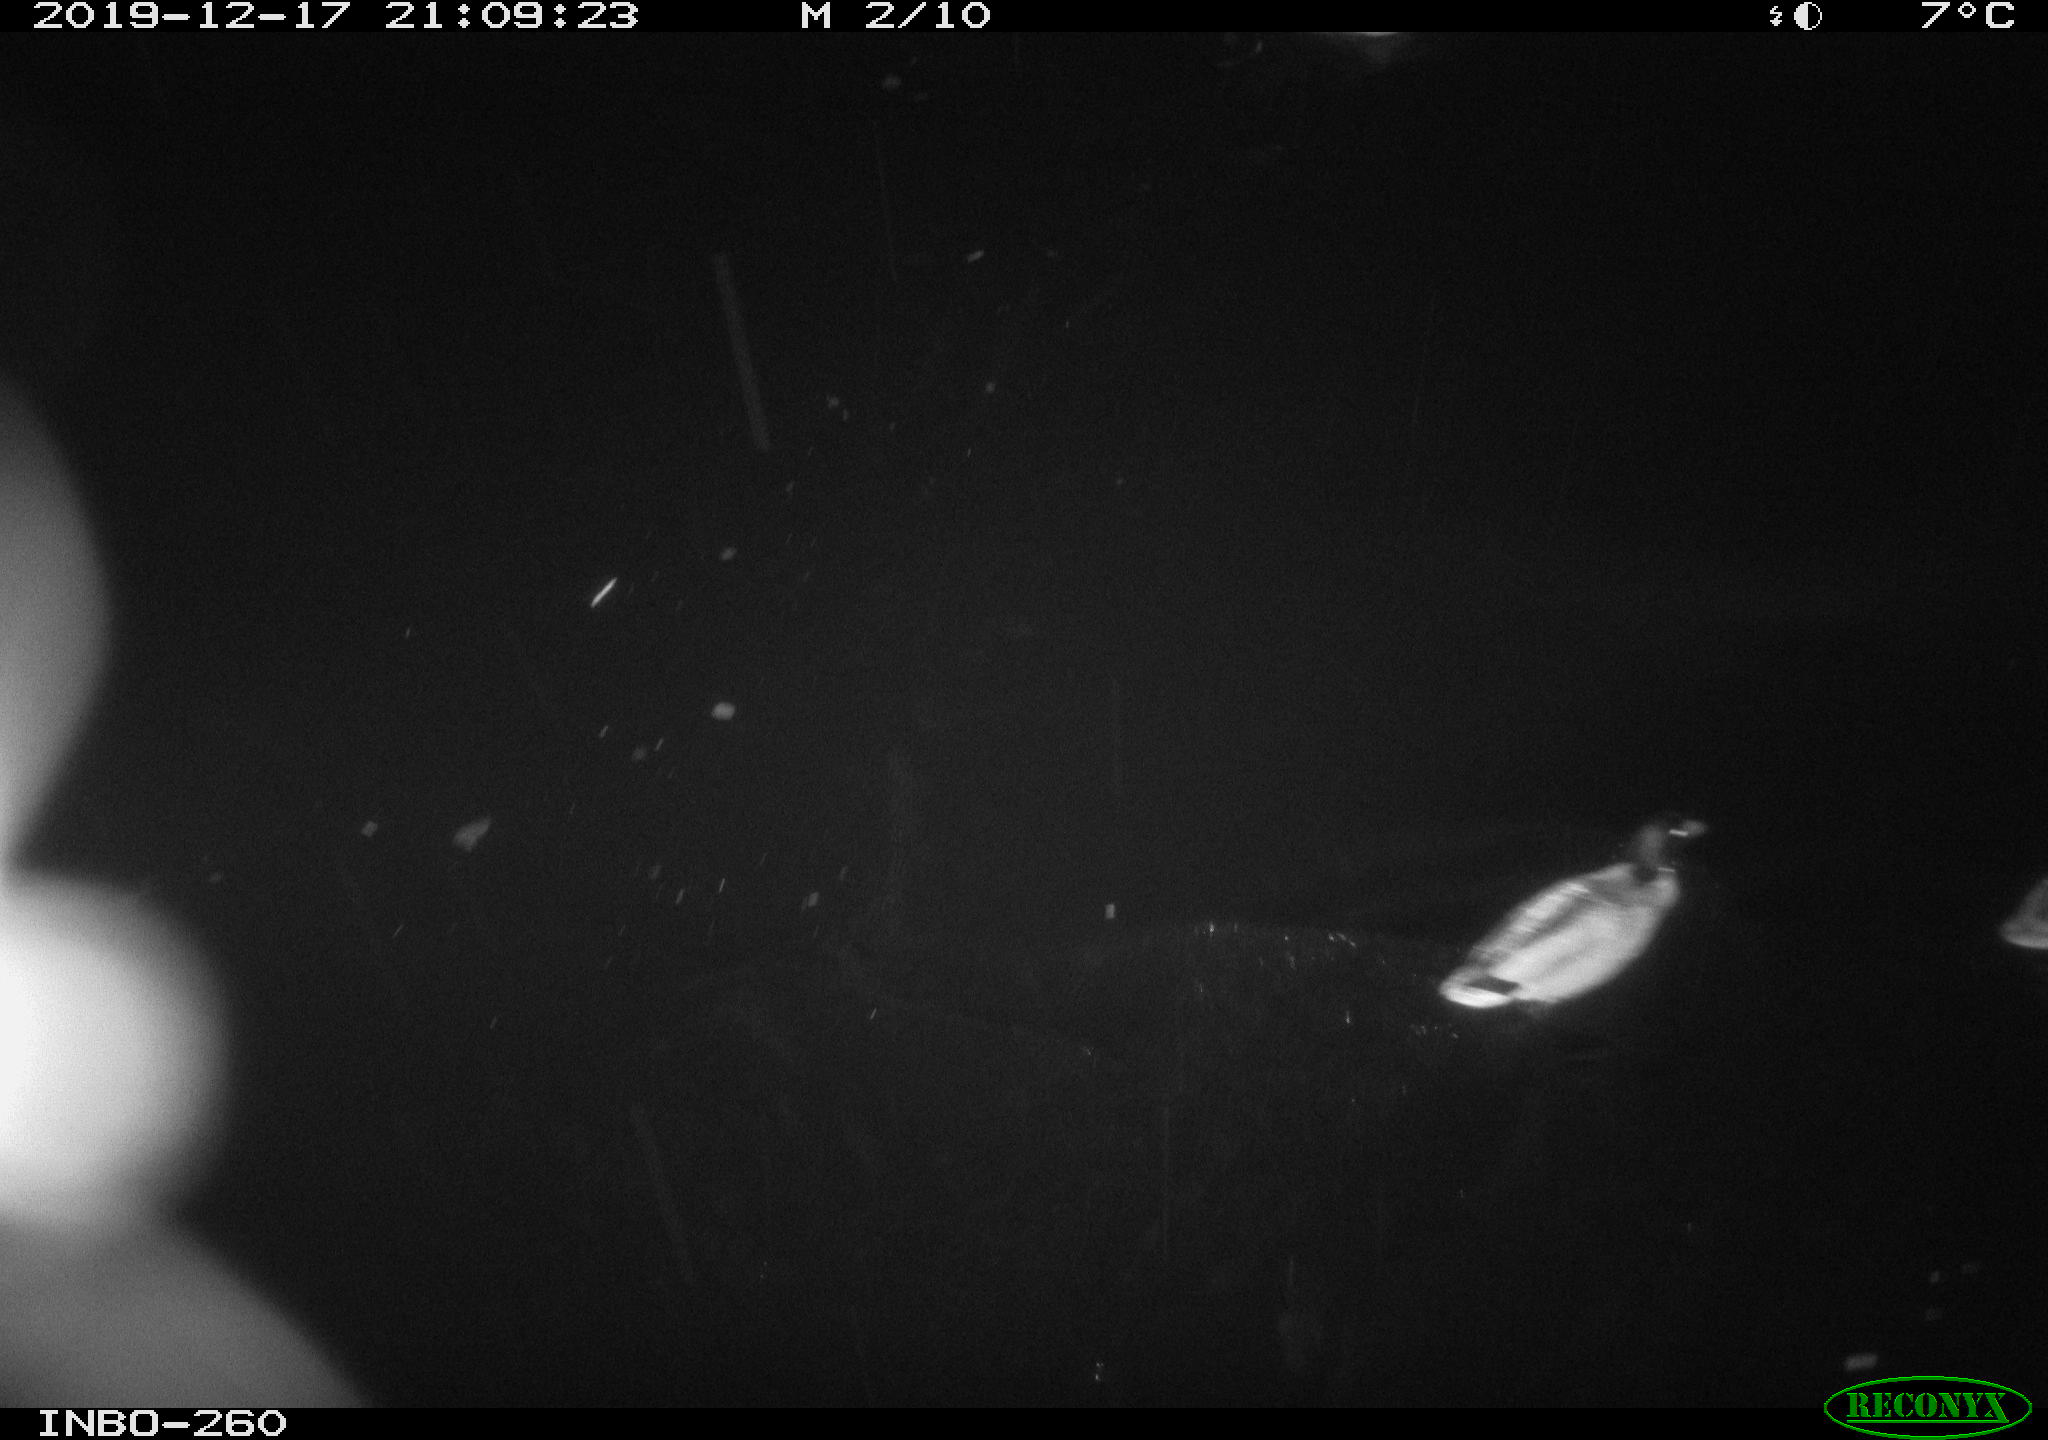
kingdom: Animalia
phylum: Chordata
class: Aves
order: Anseriformes
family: Anatidae
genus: Anas
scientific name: Anas platyrhynchos
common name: Mallard
